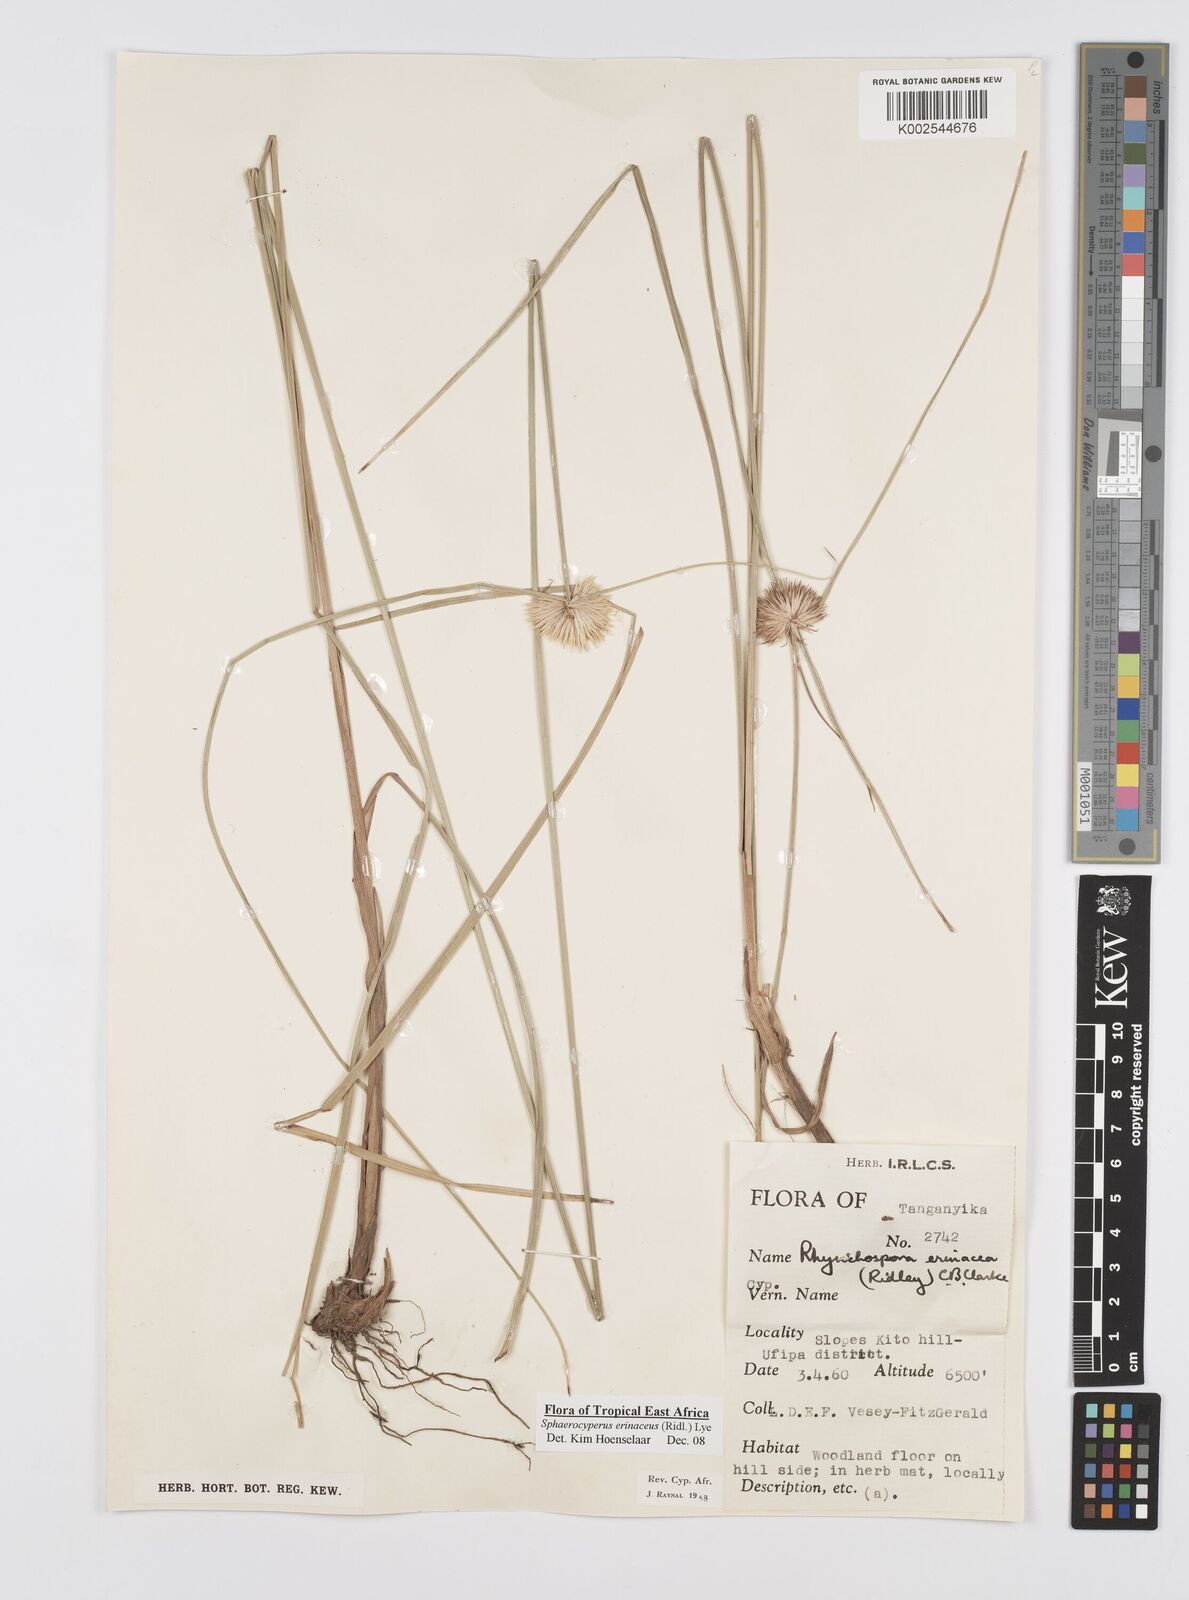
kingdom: Plantae
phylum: Tracheophyta
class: Liliopsida
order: Poales
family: Cyperaceae
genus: Cyperus
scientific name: Cyperus erinaceus
